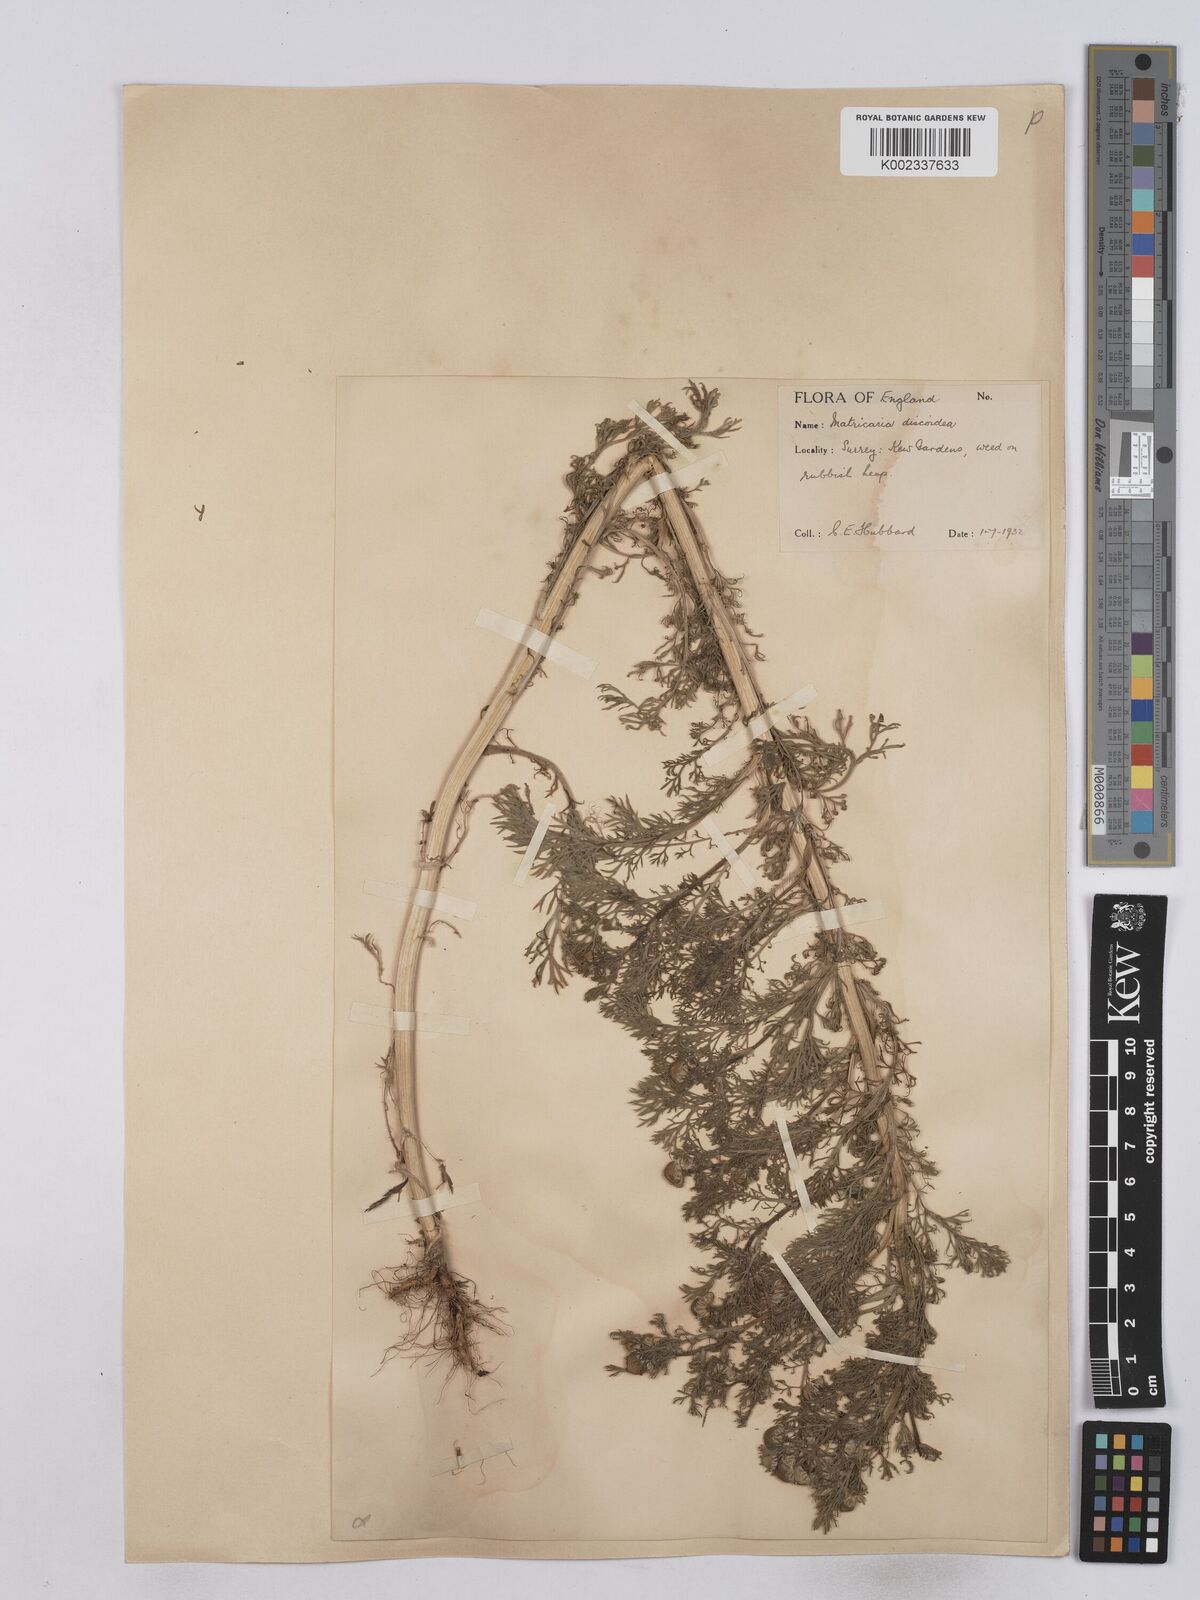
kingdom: Plantae
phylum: Tracheophyta
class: Magnoliopsida
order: Asterales
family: Asteraceae
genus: Matricaria
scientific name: Matricaria discoidea
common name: Disc mayweed
